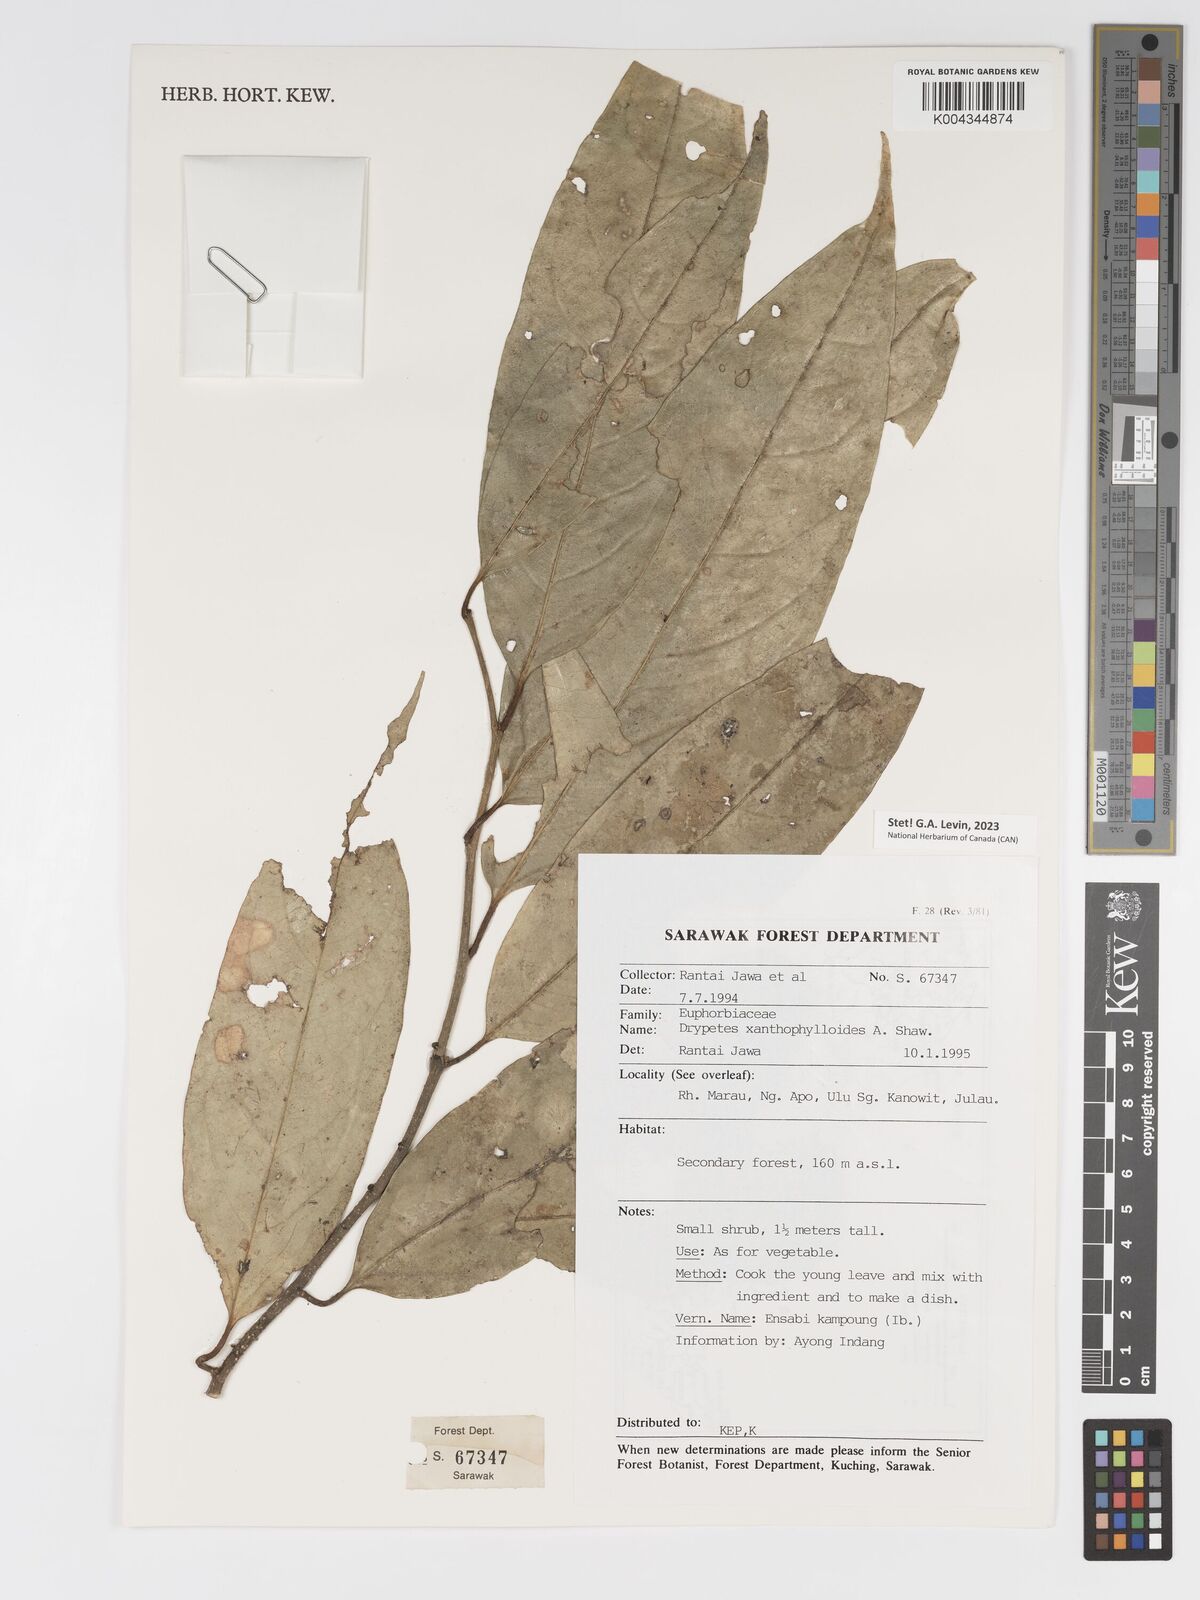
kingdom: Plantae
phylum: Tracheophyta
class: Magnoliopsida
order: Malpighiales
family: Putranjivaceae
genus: Drypetes
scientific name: Drypetes xanthophylloides
